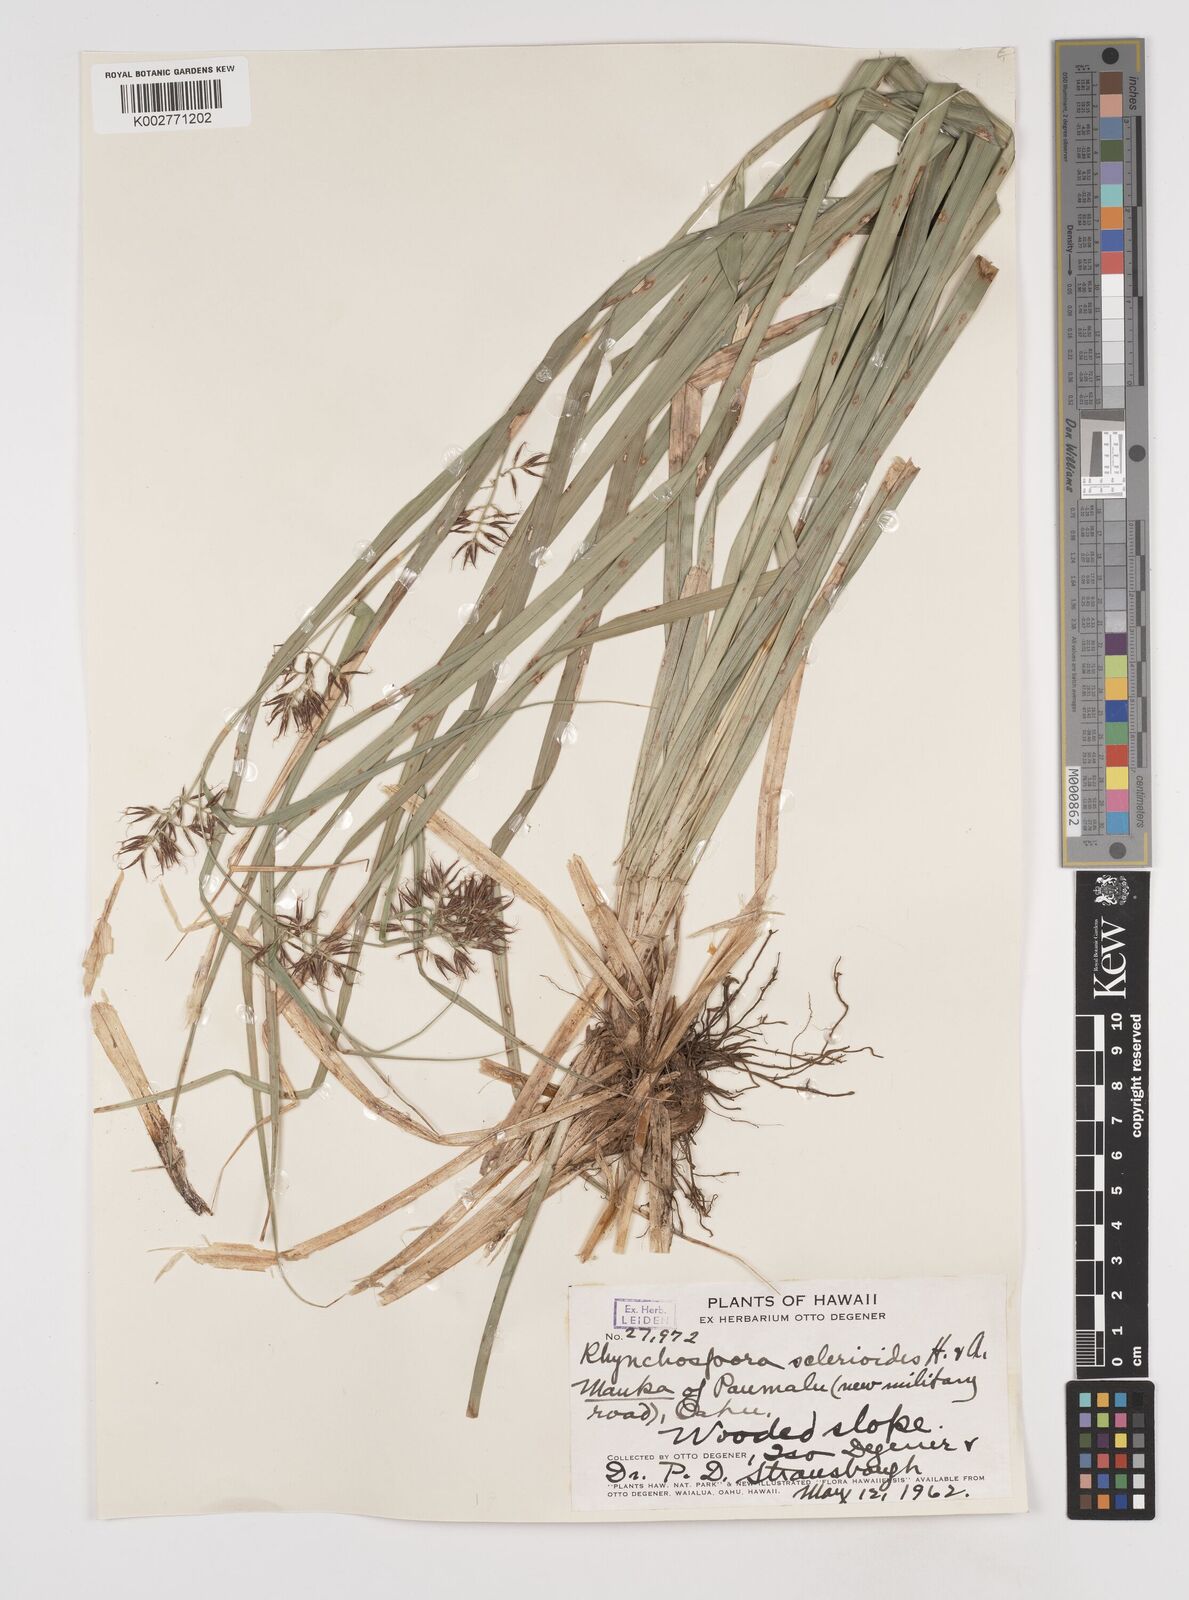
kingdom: Plantae
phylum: Tracheophyta
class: Liliopsida
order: Poales
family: Cyperaceae
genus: Rhynchospora
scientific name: Rhynchospora sclerioides
